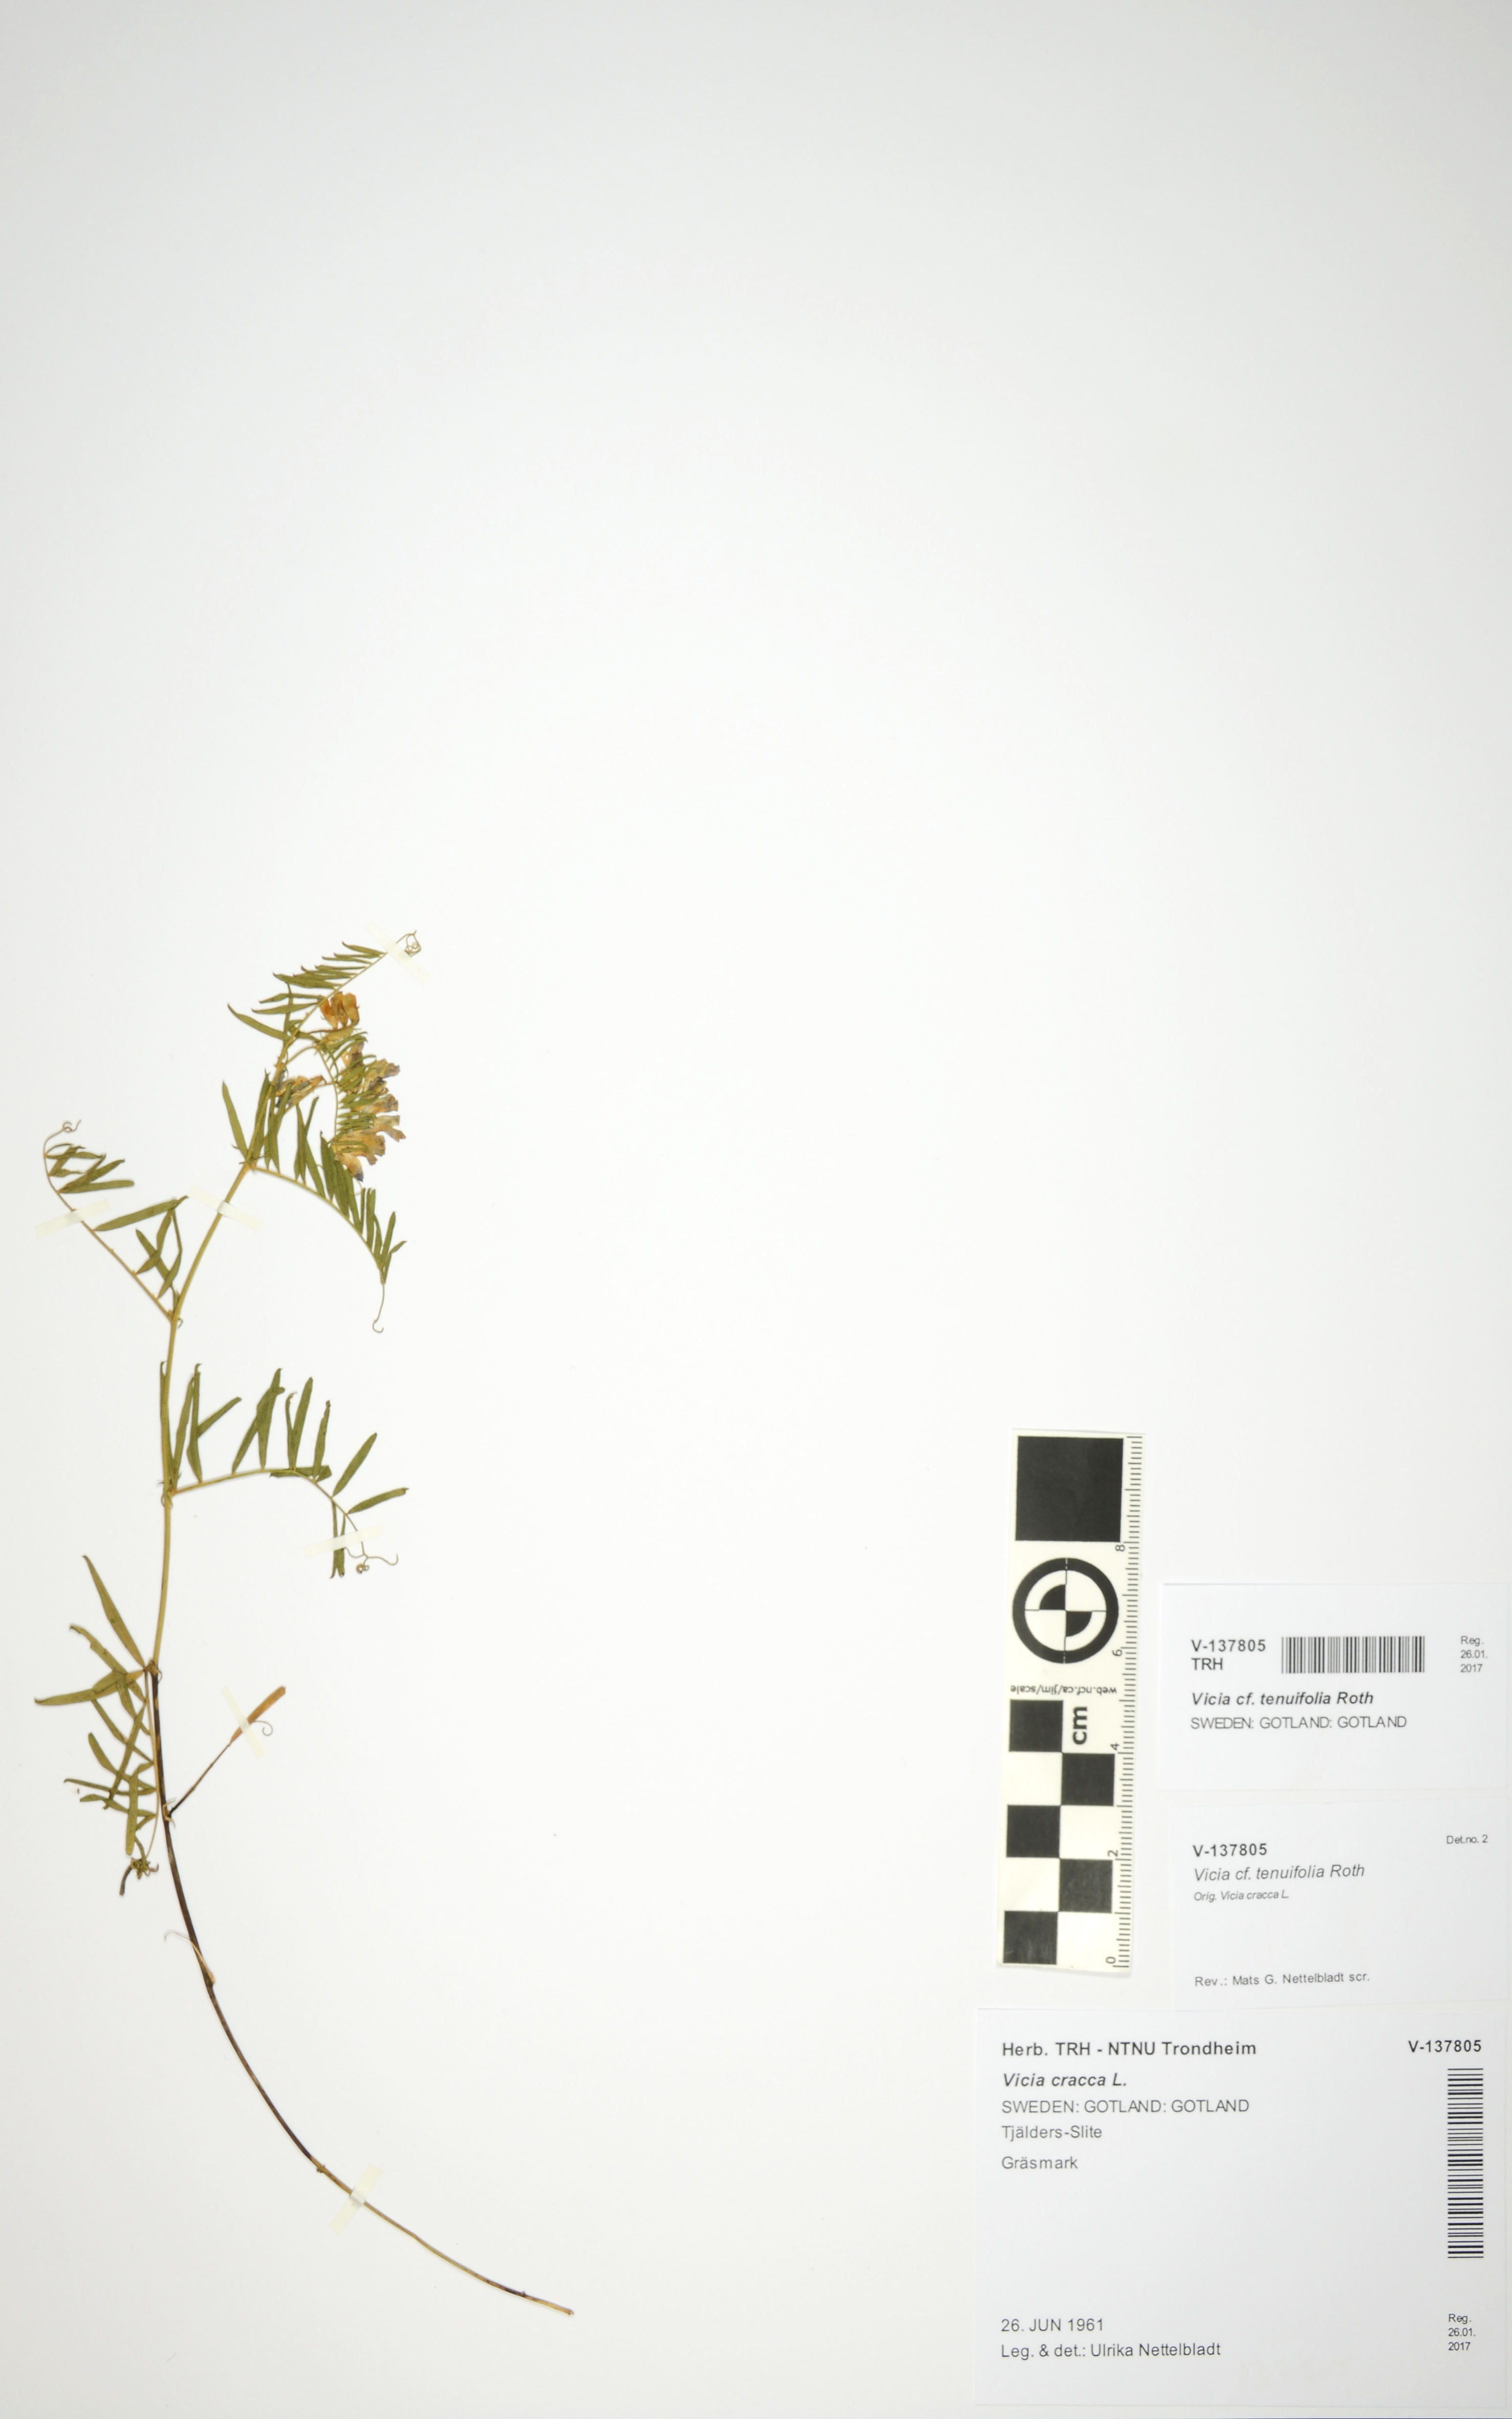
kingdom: Plantae
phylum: Tracheophyta
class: Magnoliopsida
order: Fabales
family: Fabaceae
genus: Vicia
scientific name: Vicia tenuifolia
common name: Fine-leaved vetch
